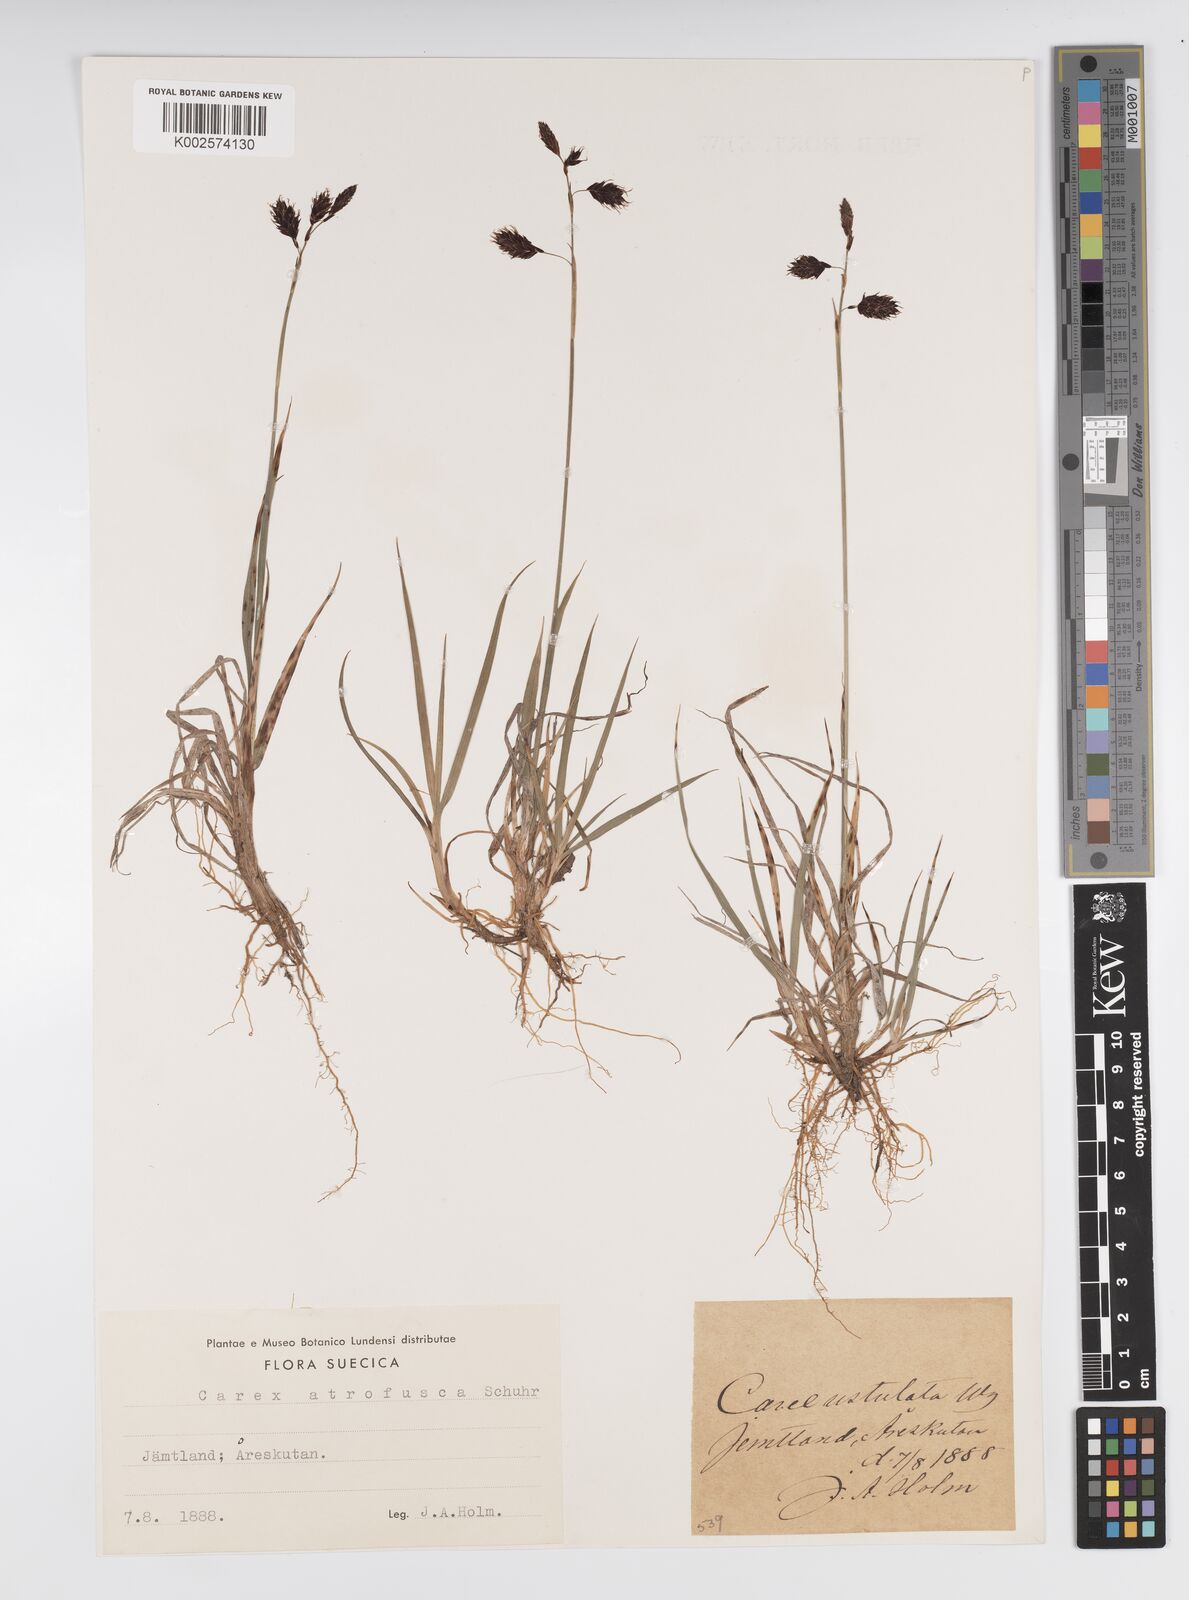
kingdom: Plantae
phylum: Tracheophyta
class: Liliopsida
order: Poales
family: Cyperaceae
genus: Carex
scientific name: Carex atrofusca
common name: Scorched alpine-sedge
